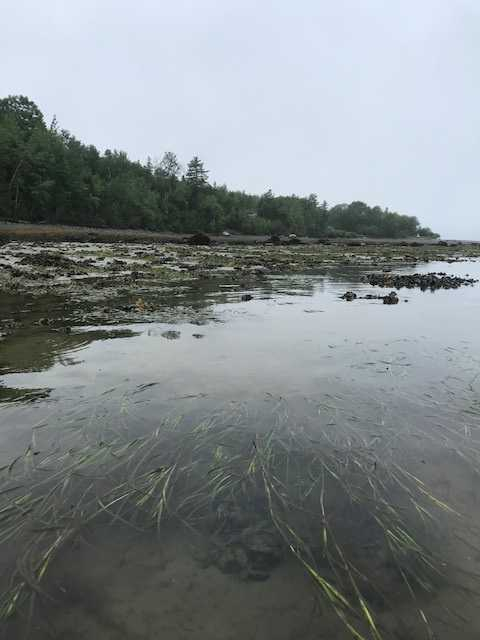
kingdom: Plantae
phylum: Tracheophyta
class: Liliopsida
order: Alismatales
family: Zosteraceae
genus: Zostera
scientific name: Zostera marina
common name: Eelgrass
